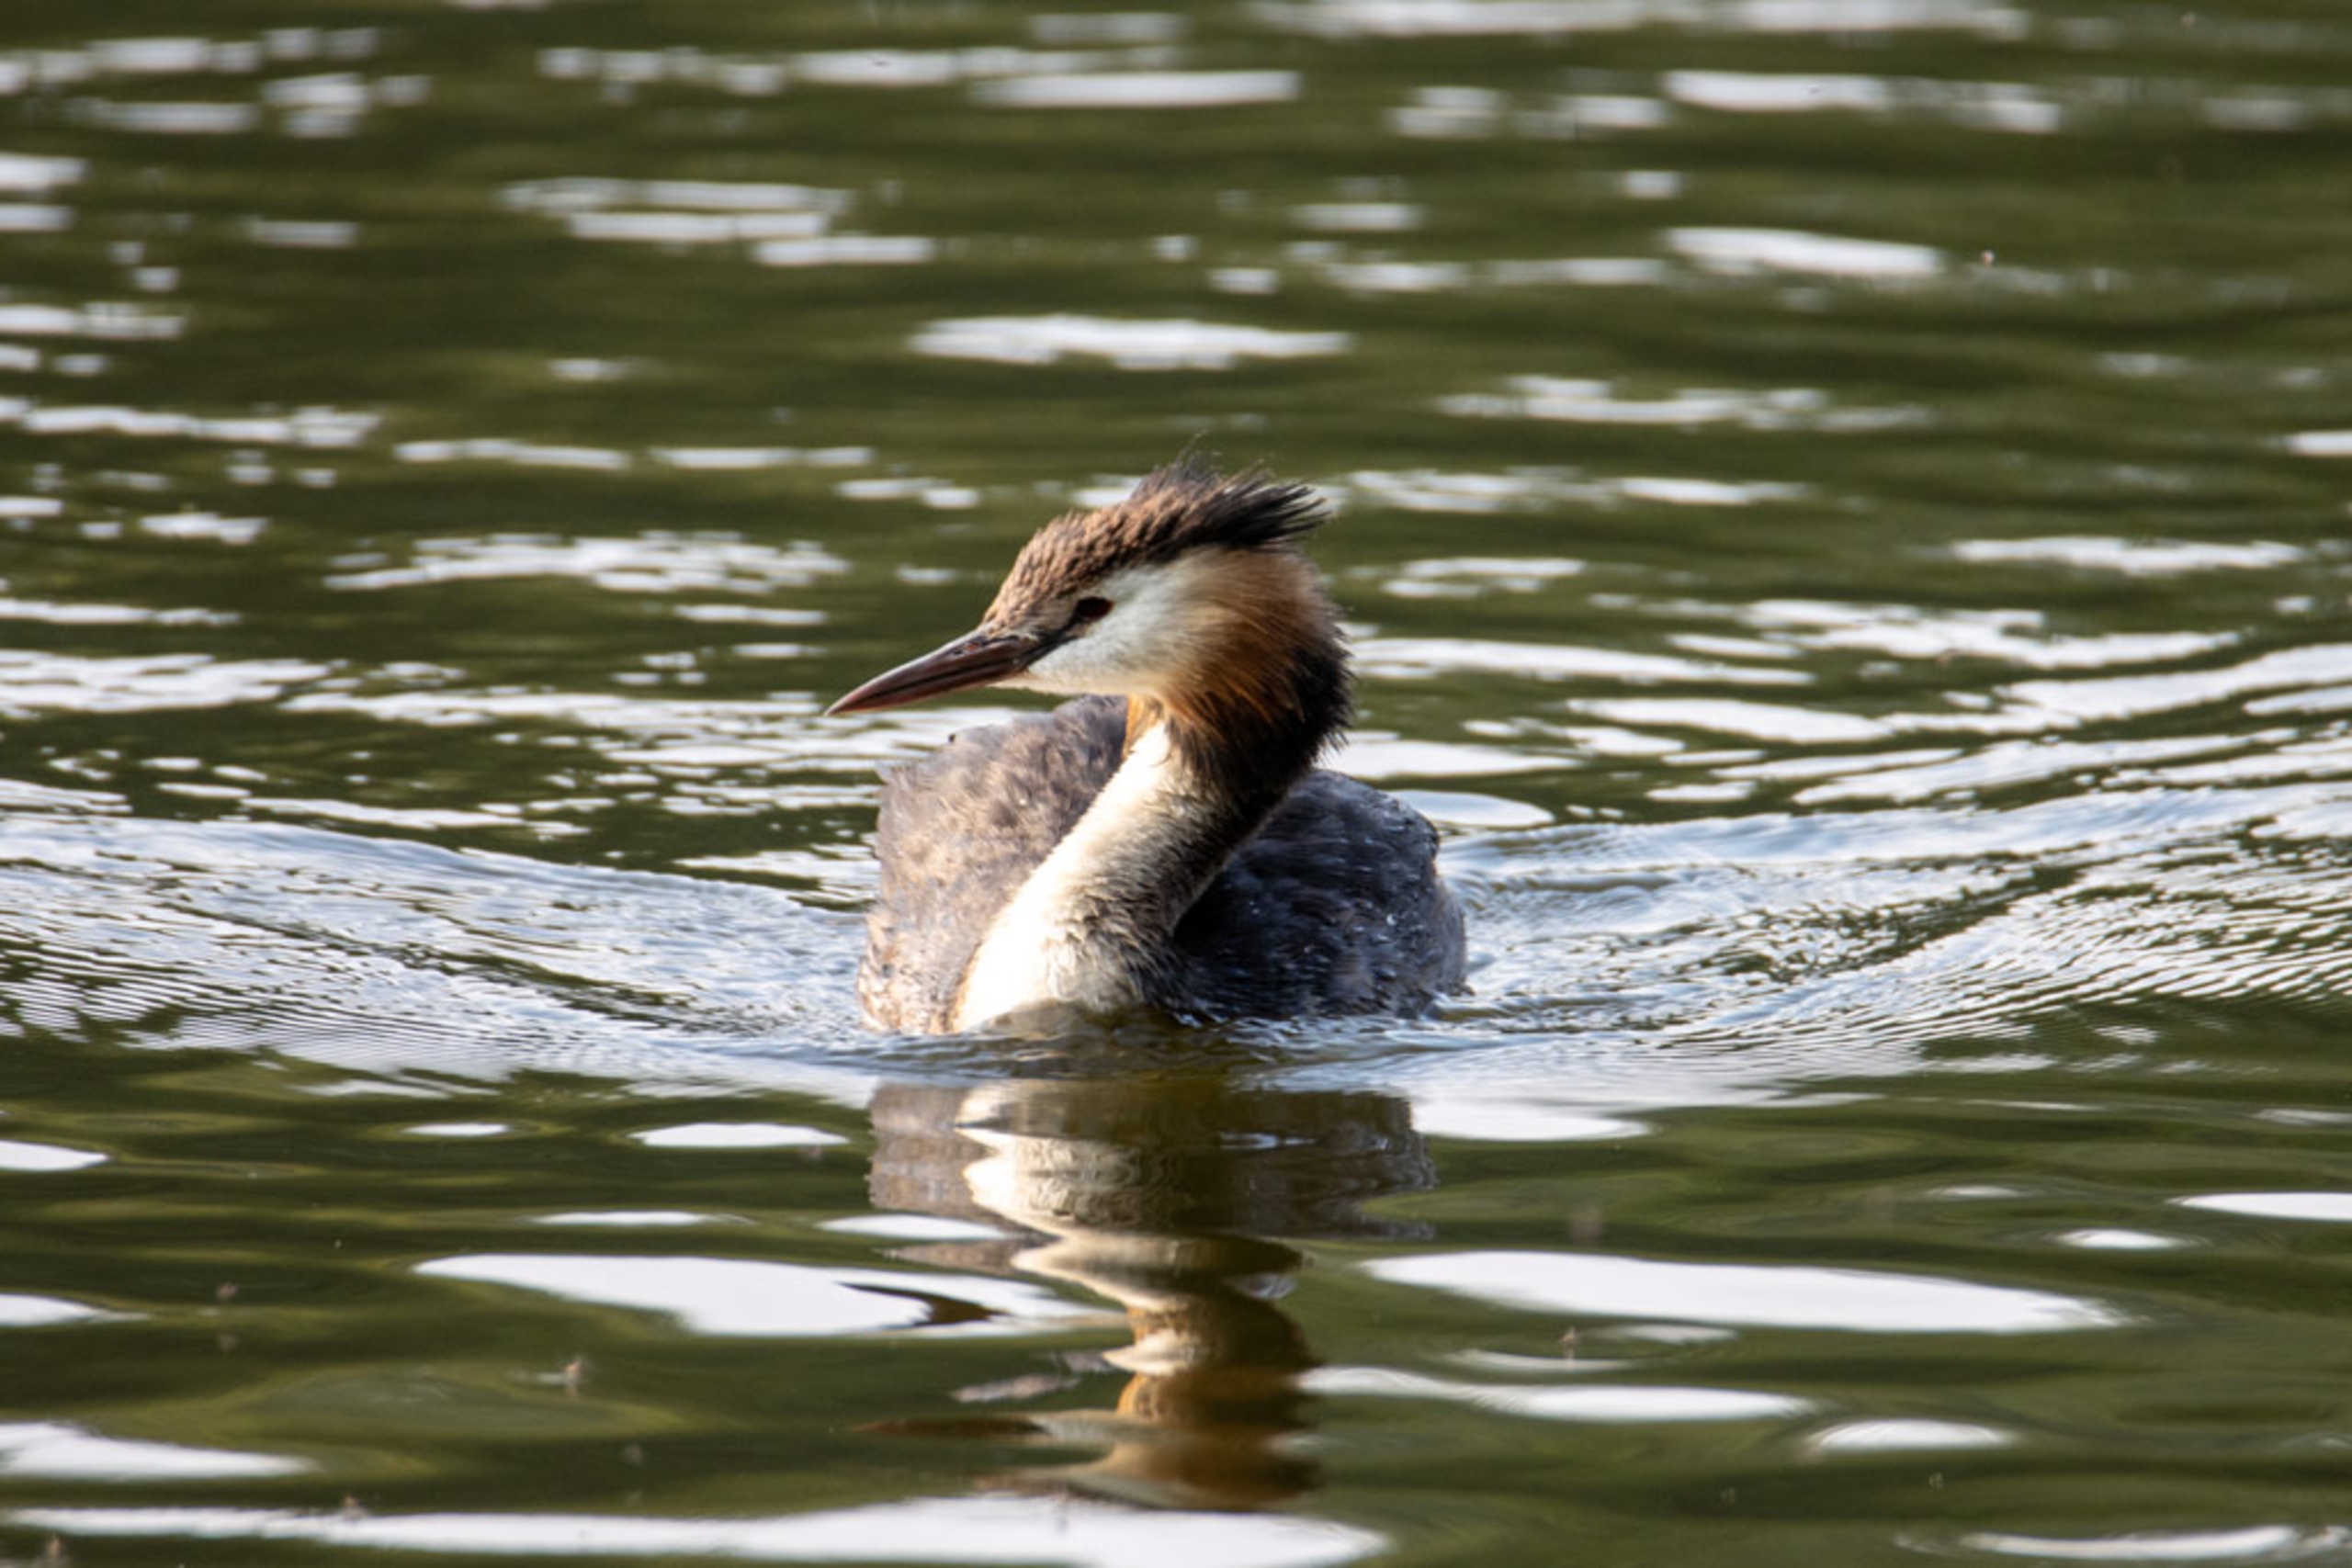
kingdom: Animalia
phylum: Chordata
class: Aves
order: Podicipediformes
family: Podicipedidae
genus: Podiceps
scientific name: Podiceps cristatus
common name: Toppet lappedykker
